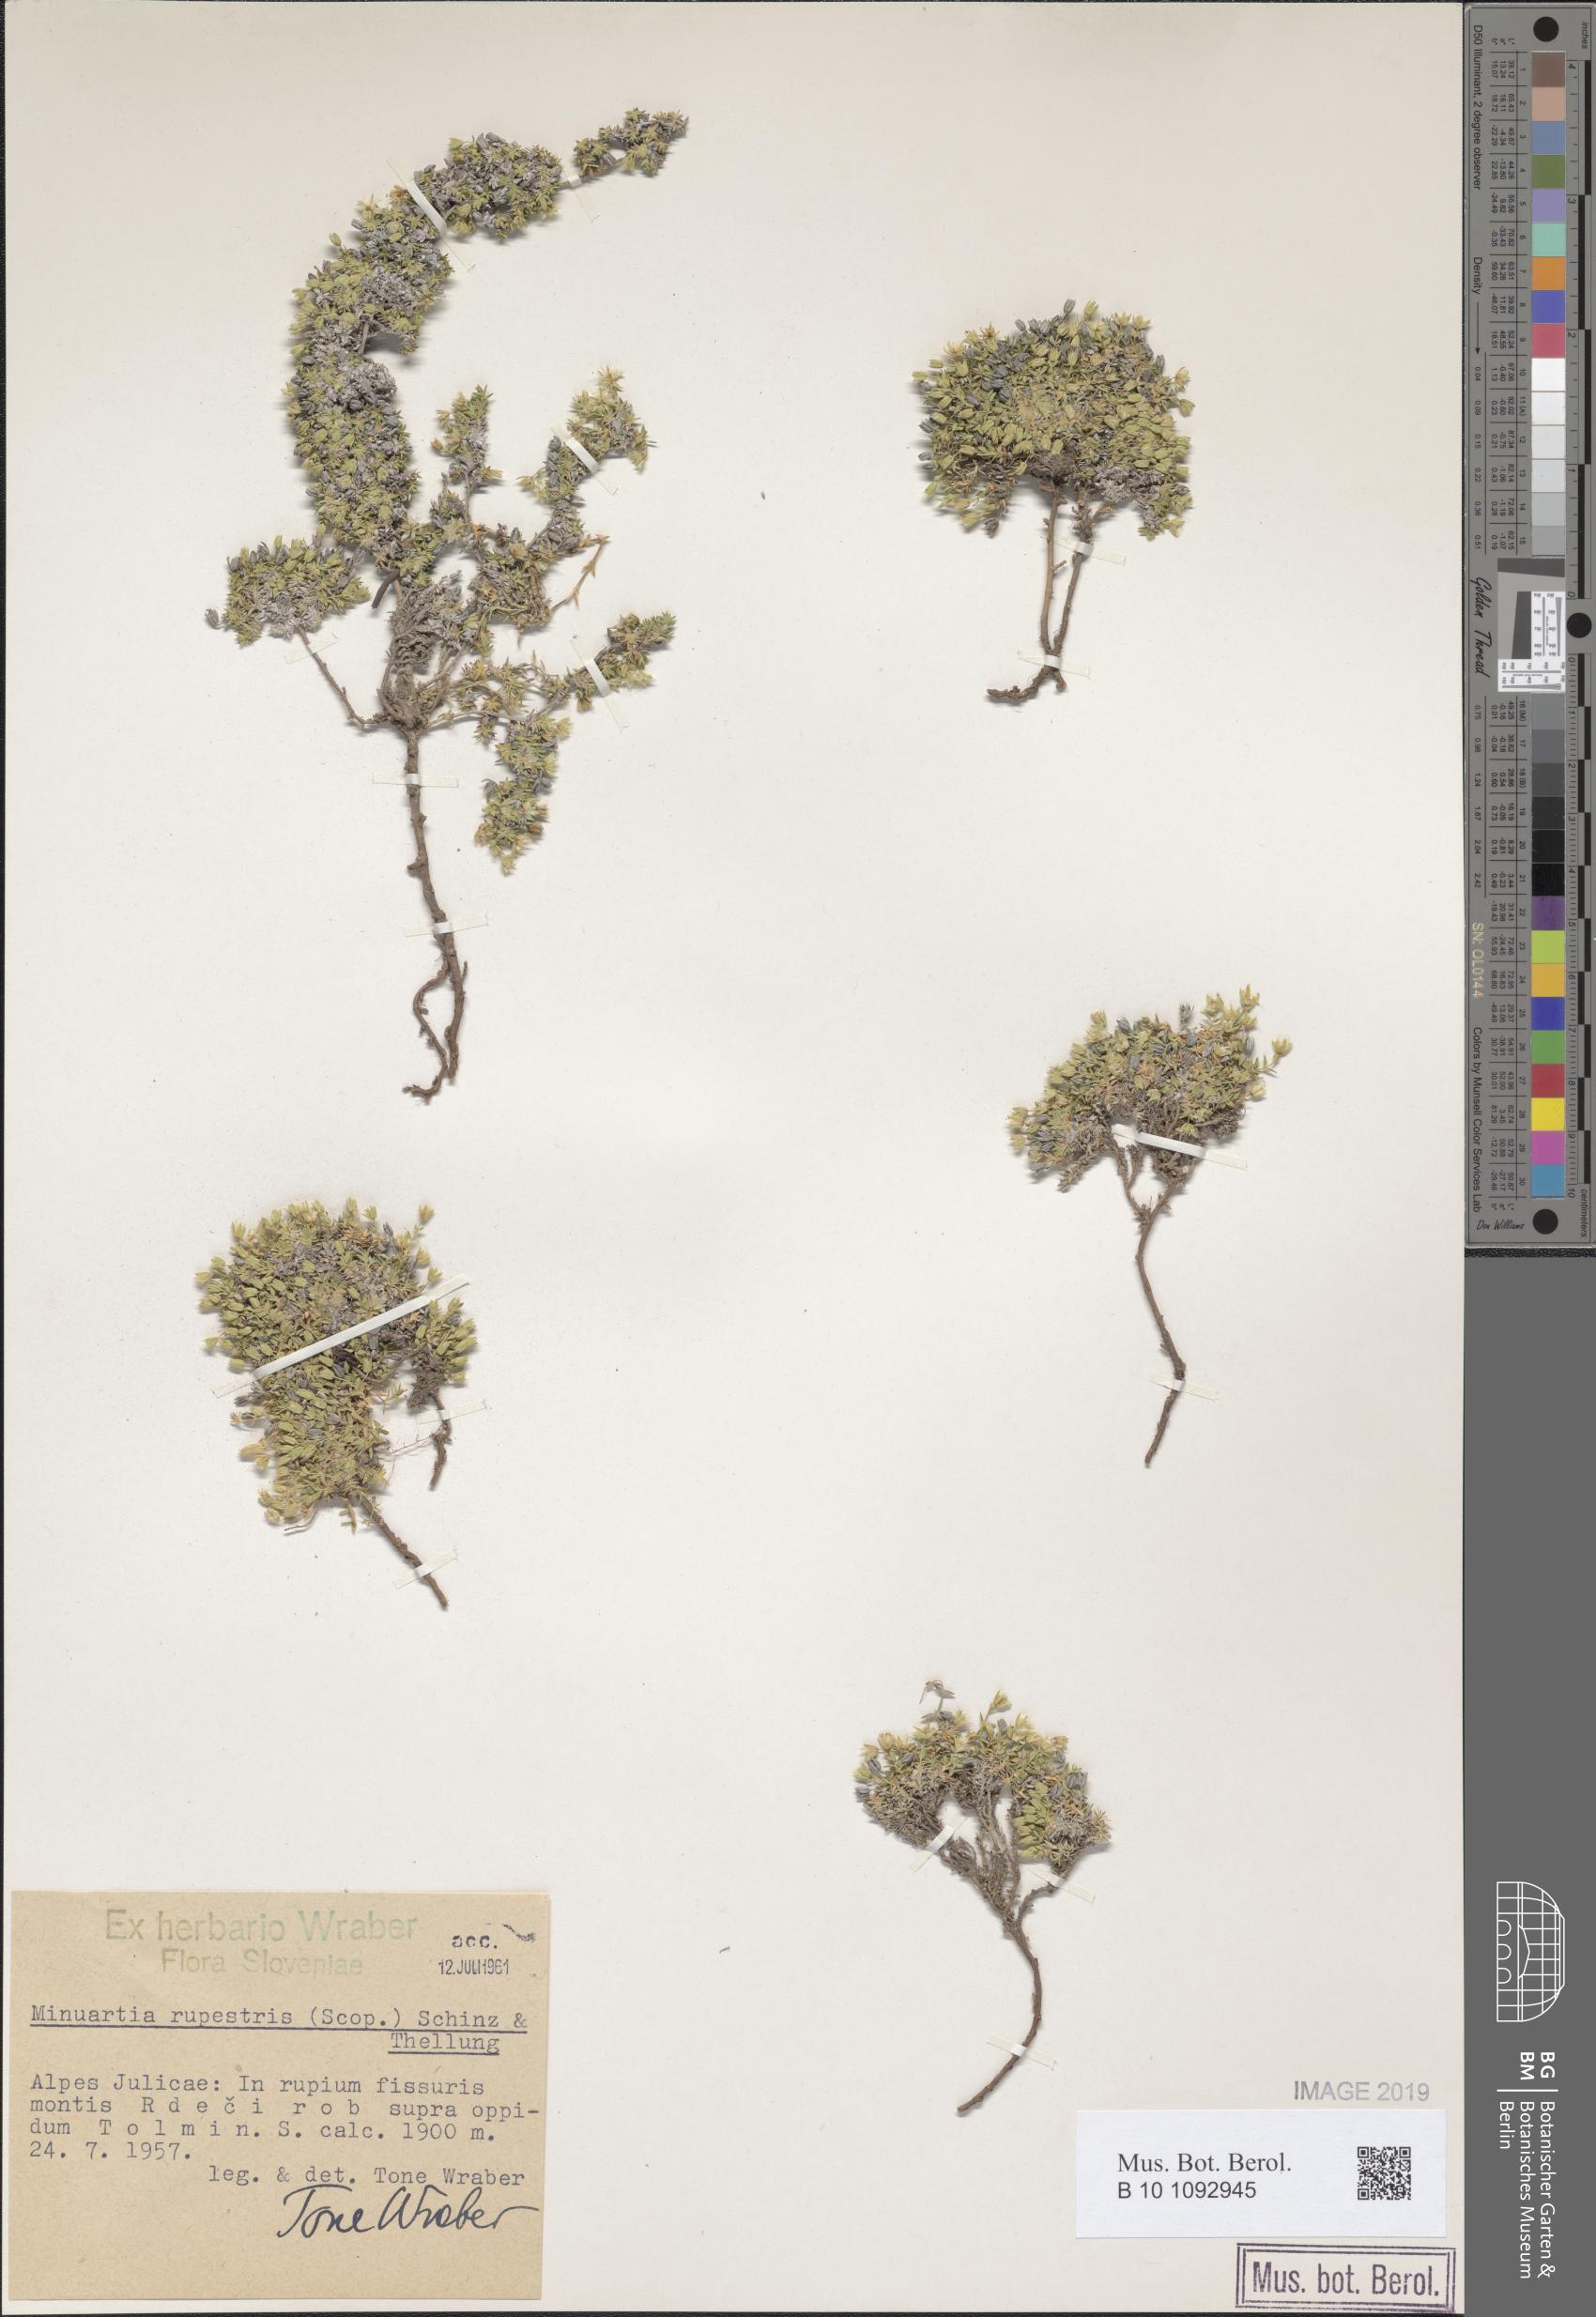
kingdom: Plantae
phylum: Tracheophyta
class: Magnoliopsida
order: Caryophyllales
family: Caryophyllaceae
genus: Facchinia
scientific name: Facchinia rupestris
